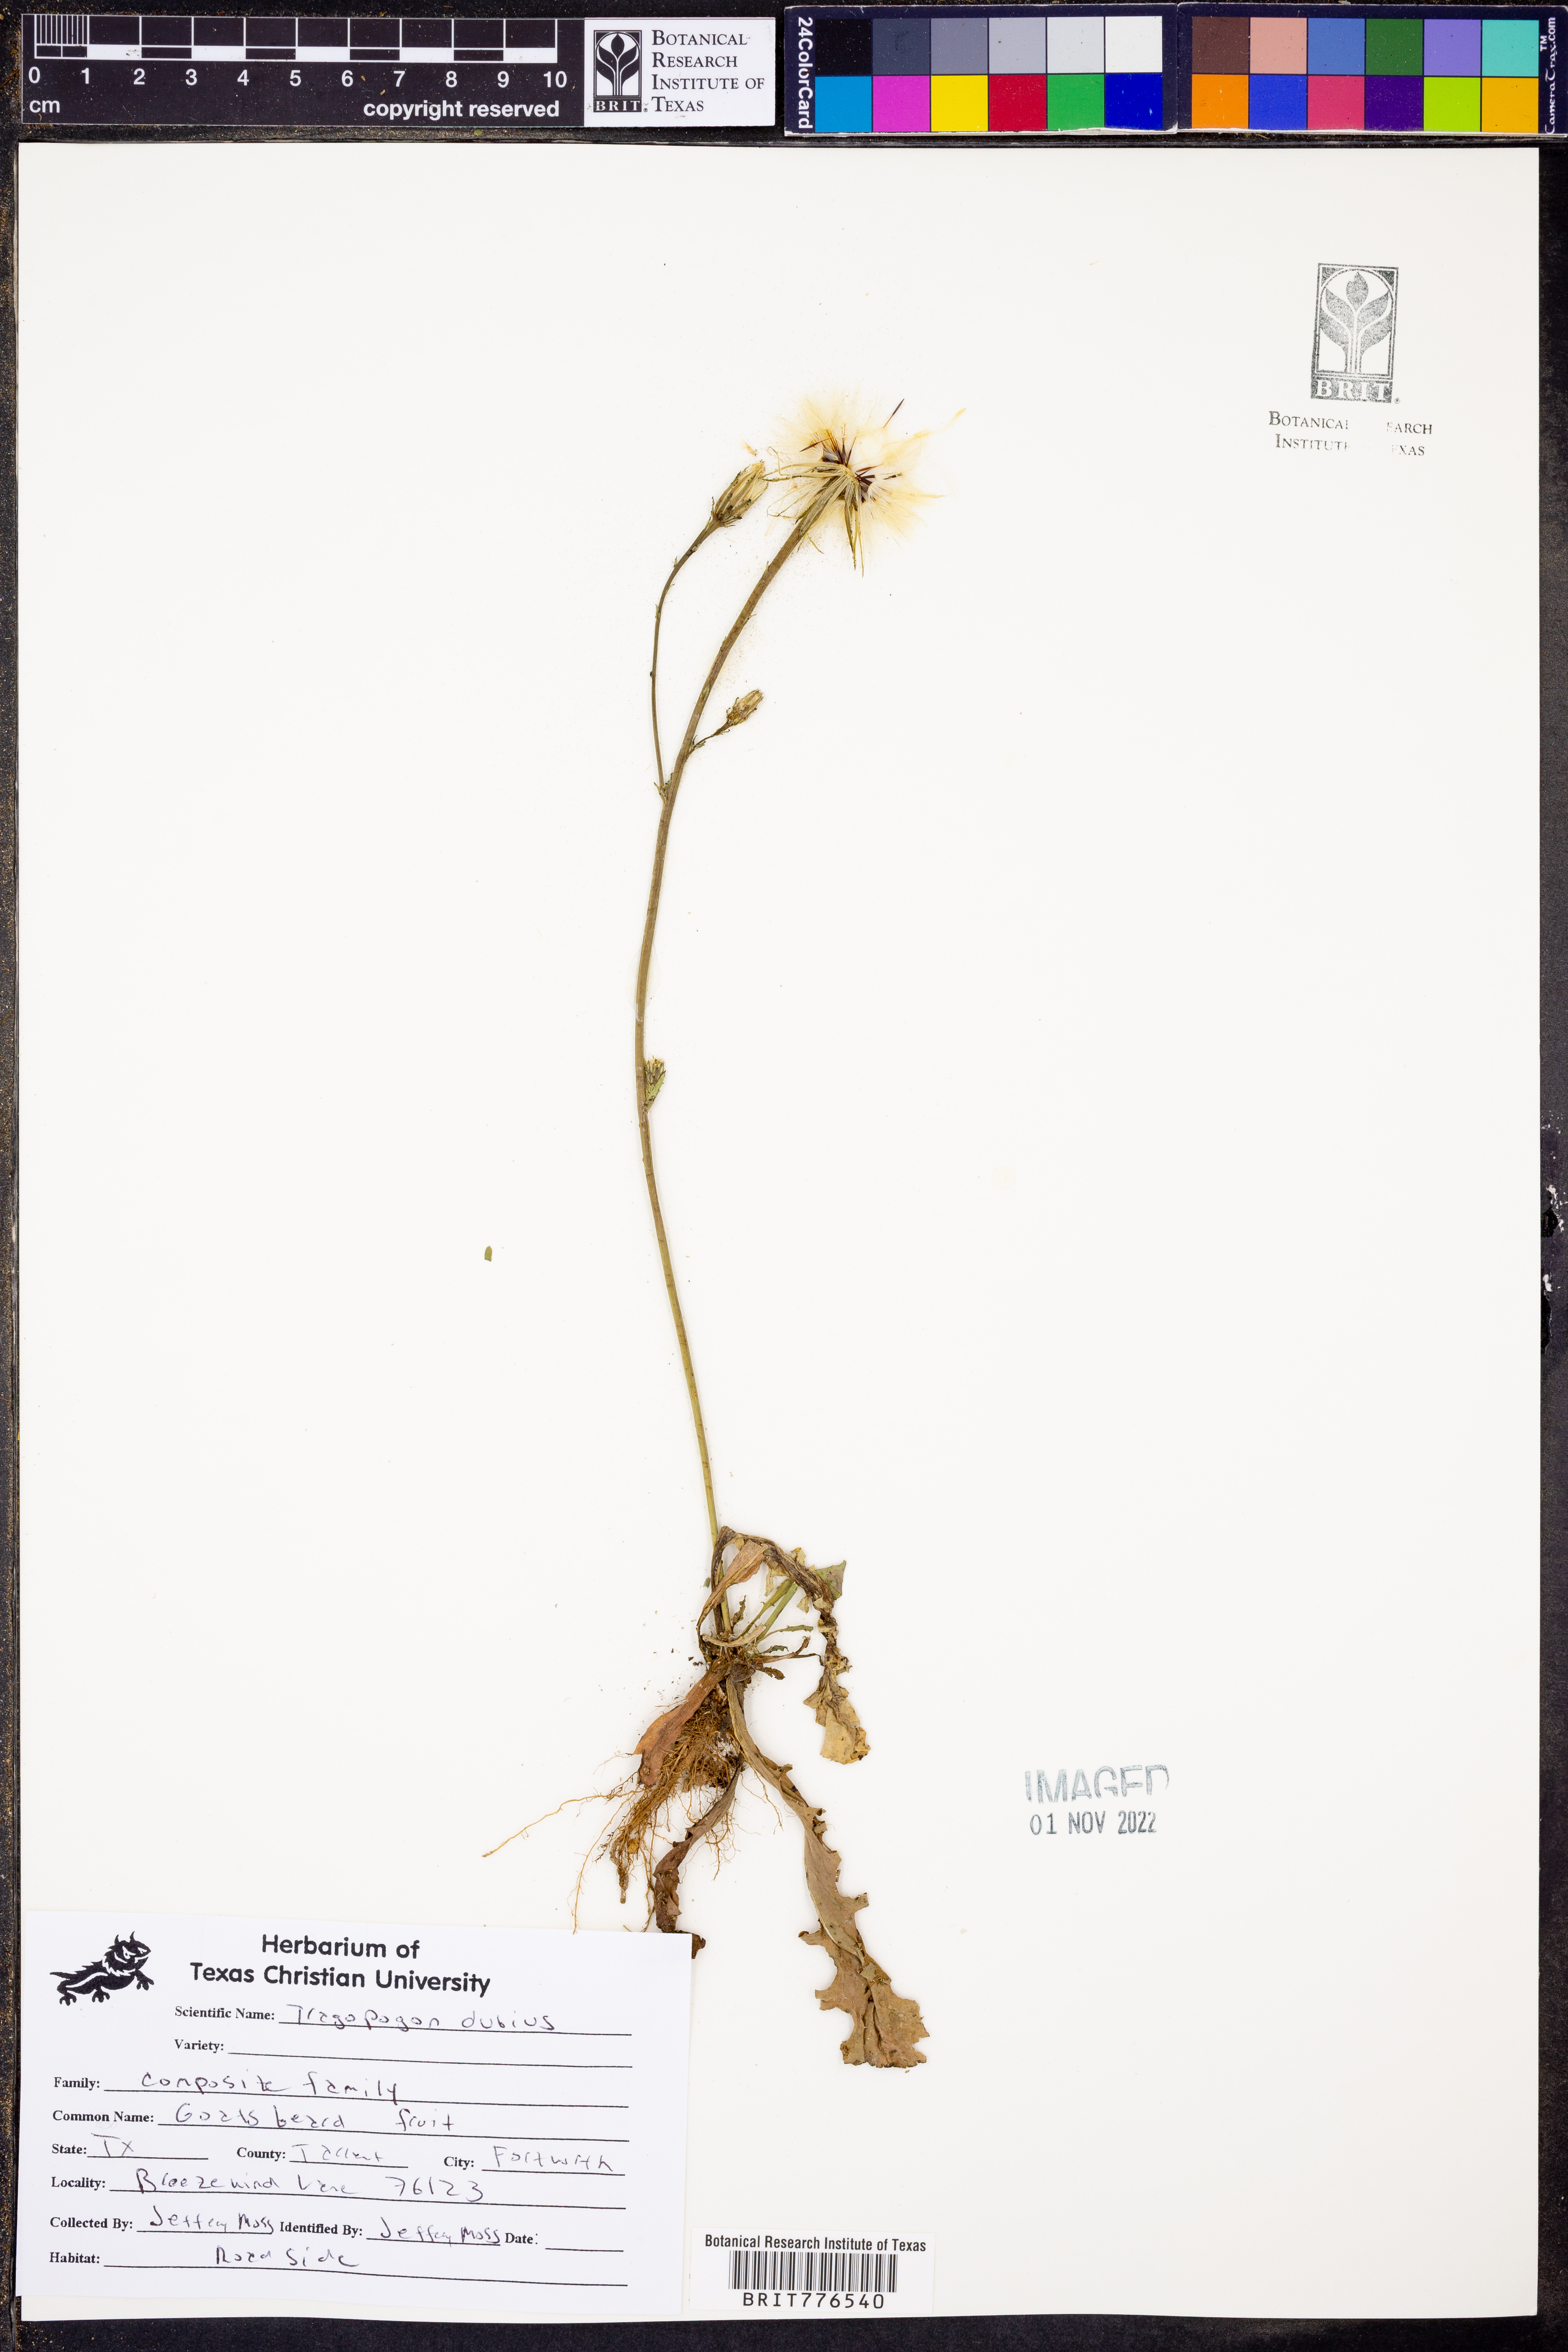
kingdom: Plantae
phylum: Tracheophyta
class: Magnoliopsida
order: Asterales
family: Asteraceae
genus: Tragopogon
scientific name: Tragopogon dubius
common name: Yellow salsify
